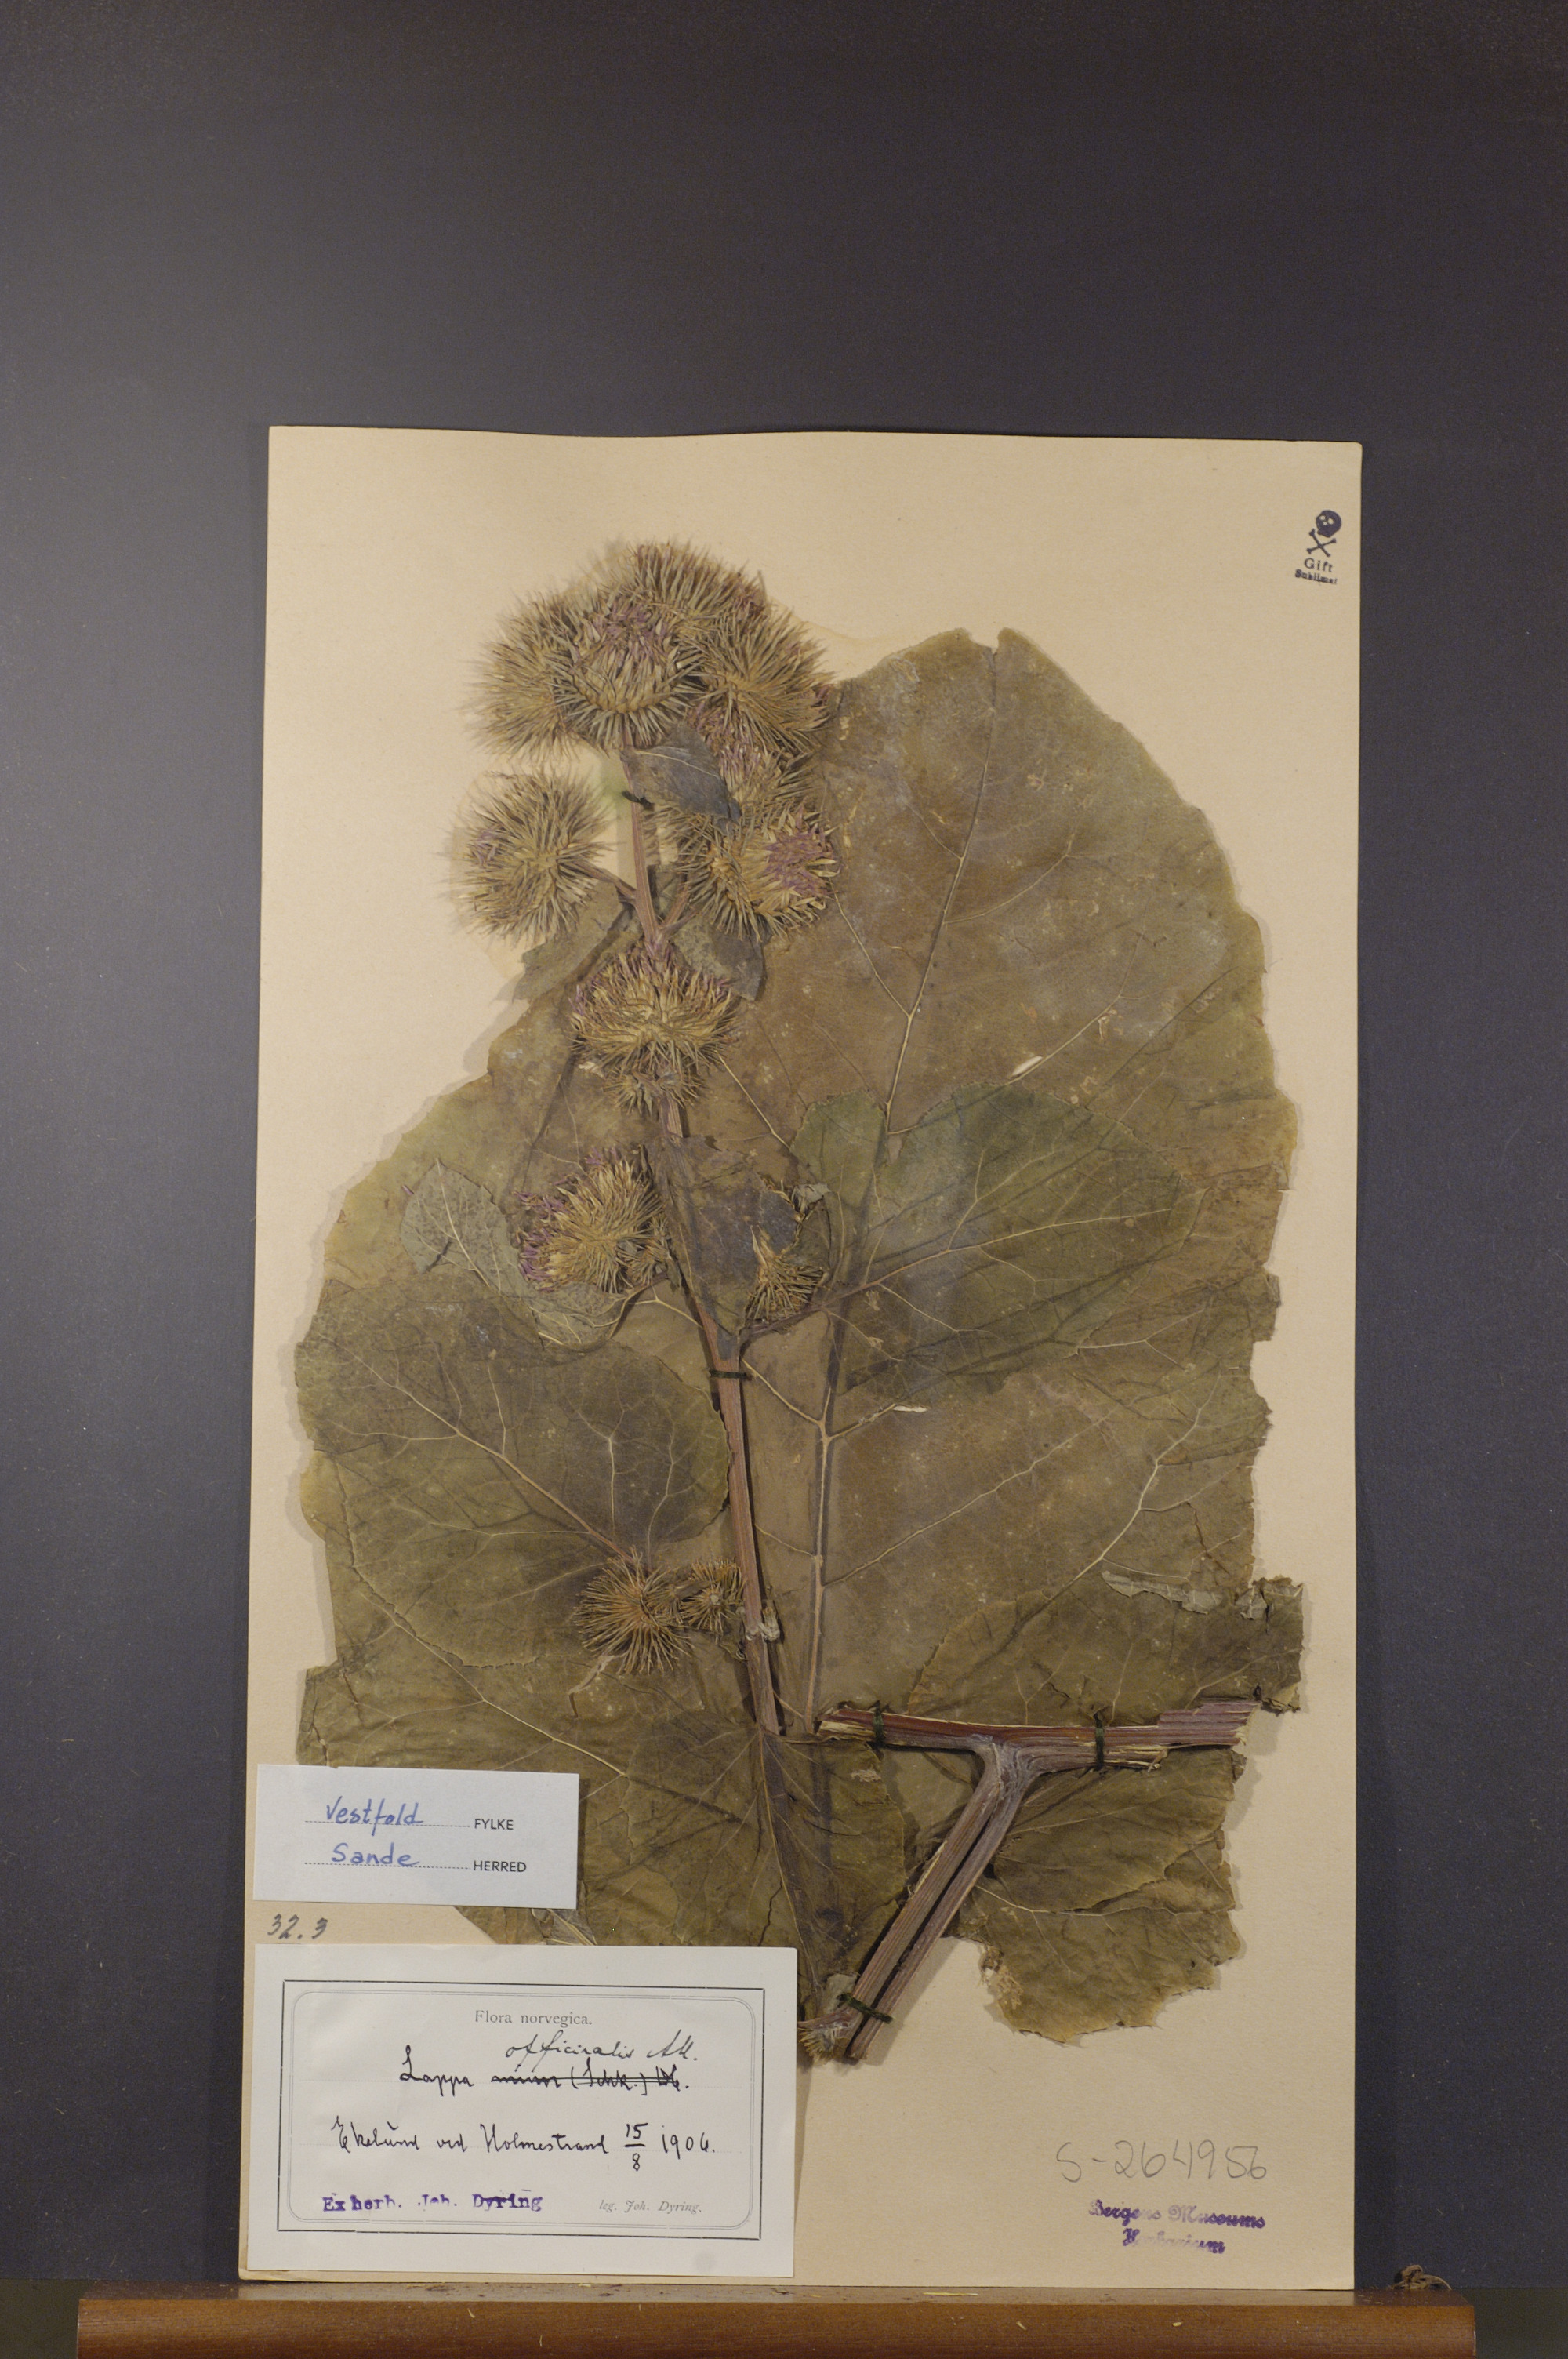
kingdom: Plantae
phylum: Tracheophyta
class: Magnoliopsida
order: Asterales
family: Asteraceae
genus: Arctium
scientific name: Arctium lappa
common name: Greater burdock
